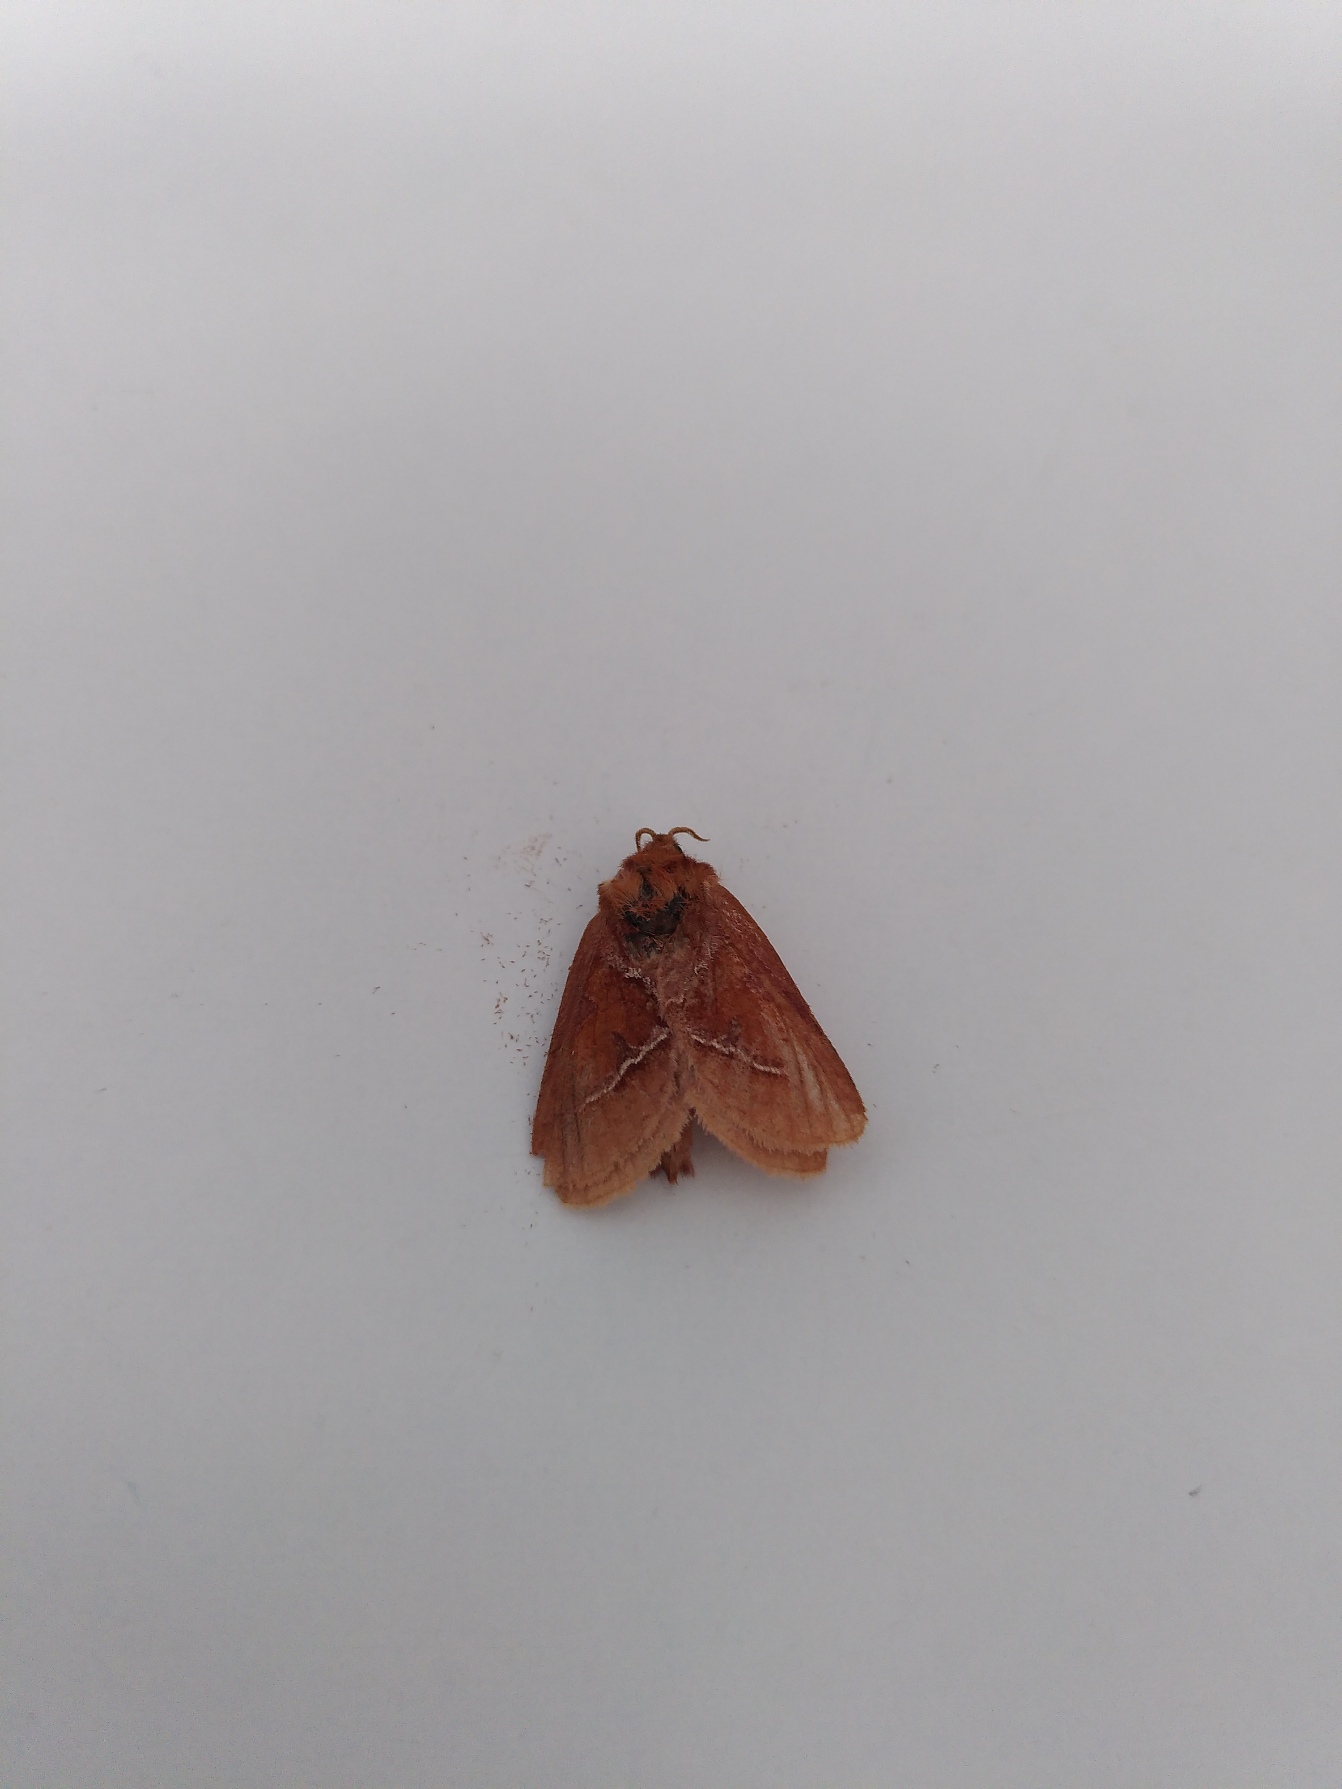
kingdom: Animalia
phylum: Arthropoda
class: Insecta
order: Lepidoptera
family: Hepialidae
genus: Triodia
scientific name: Triodia sylvina
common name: Skræpperodæder
